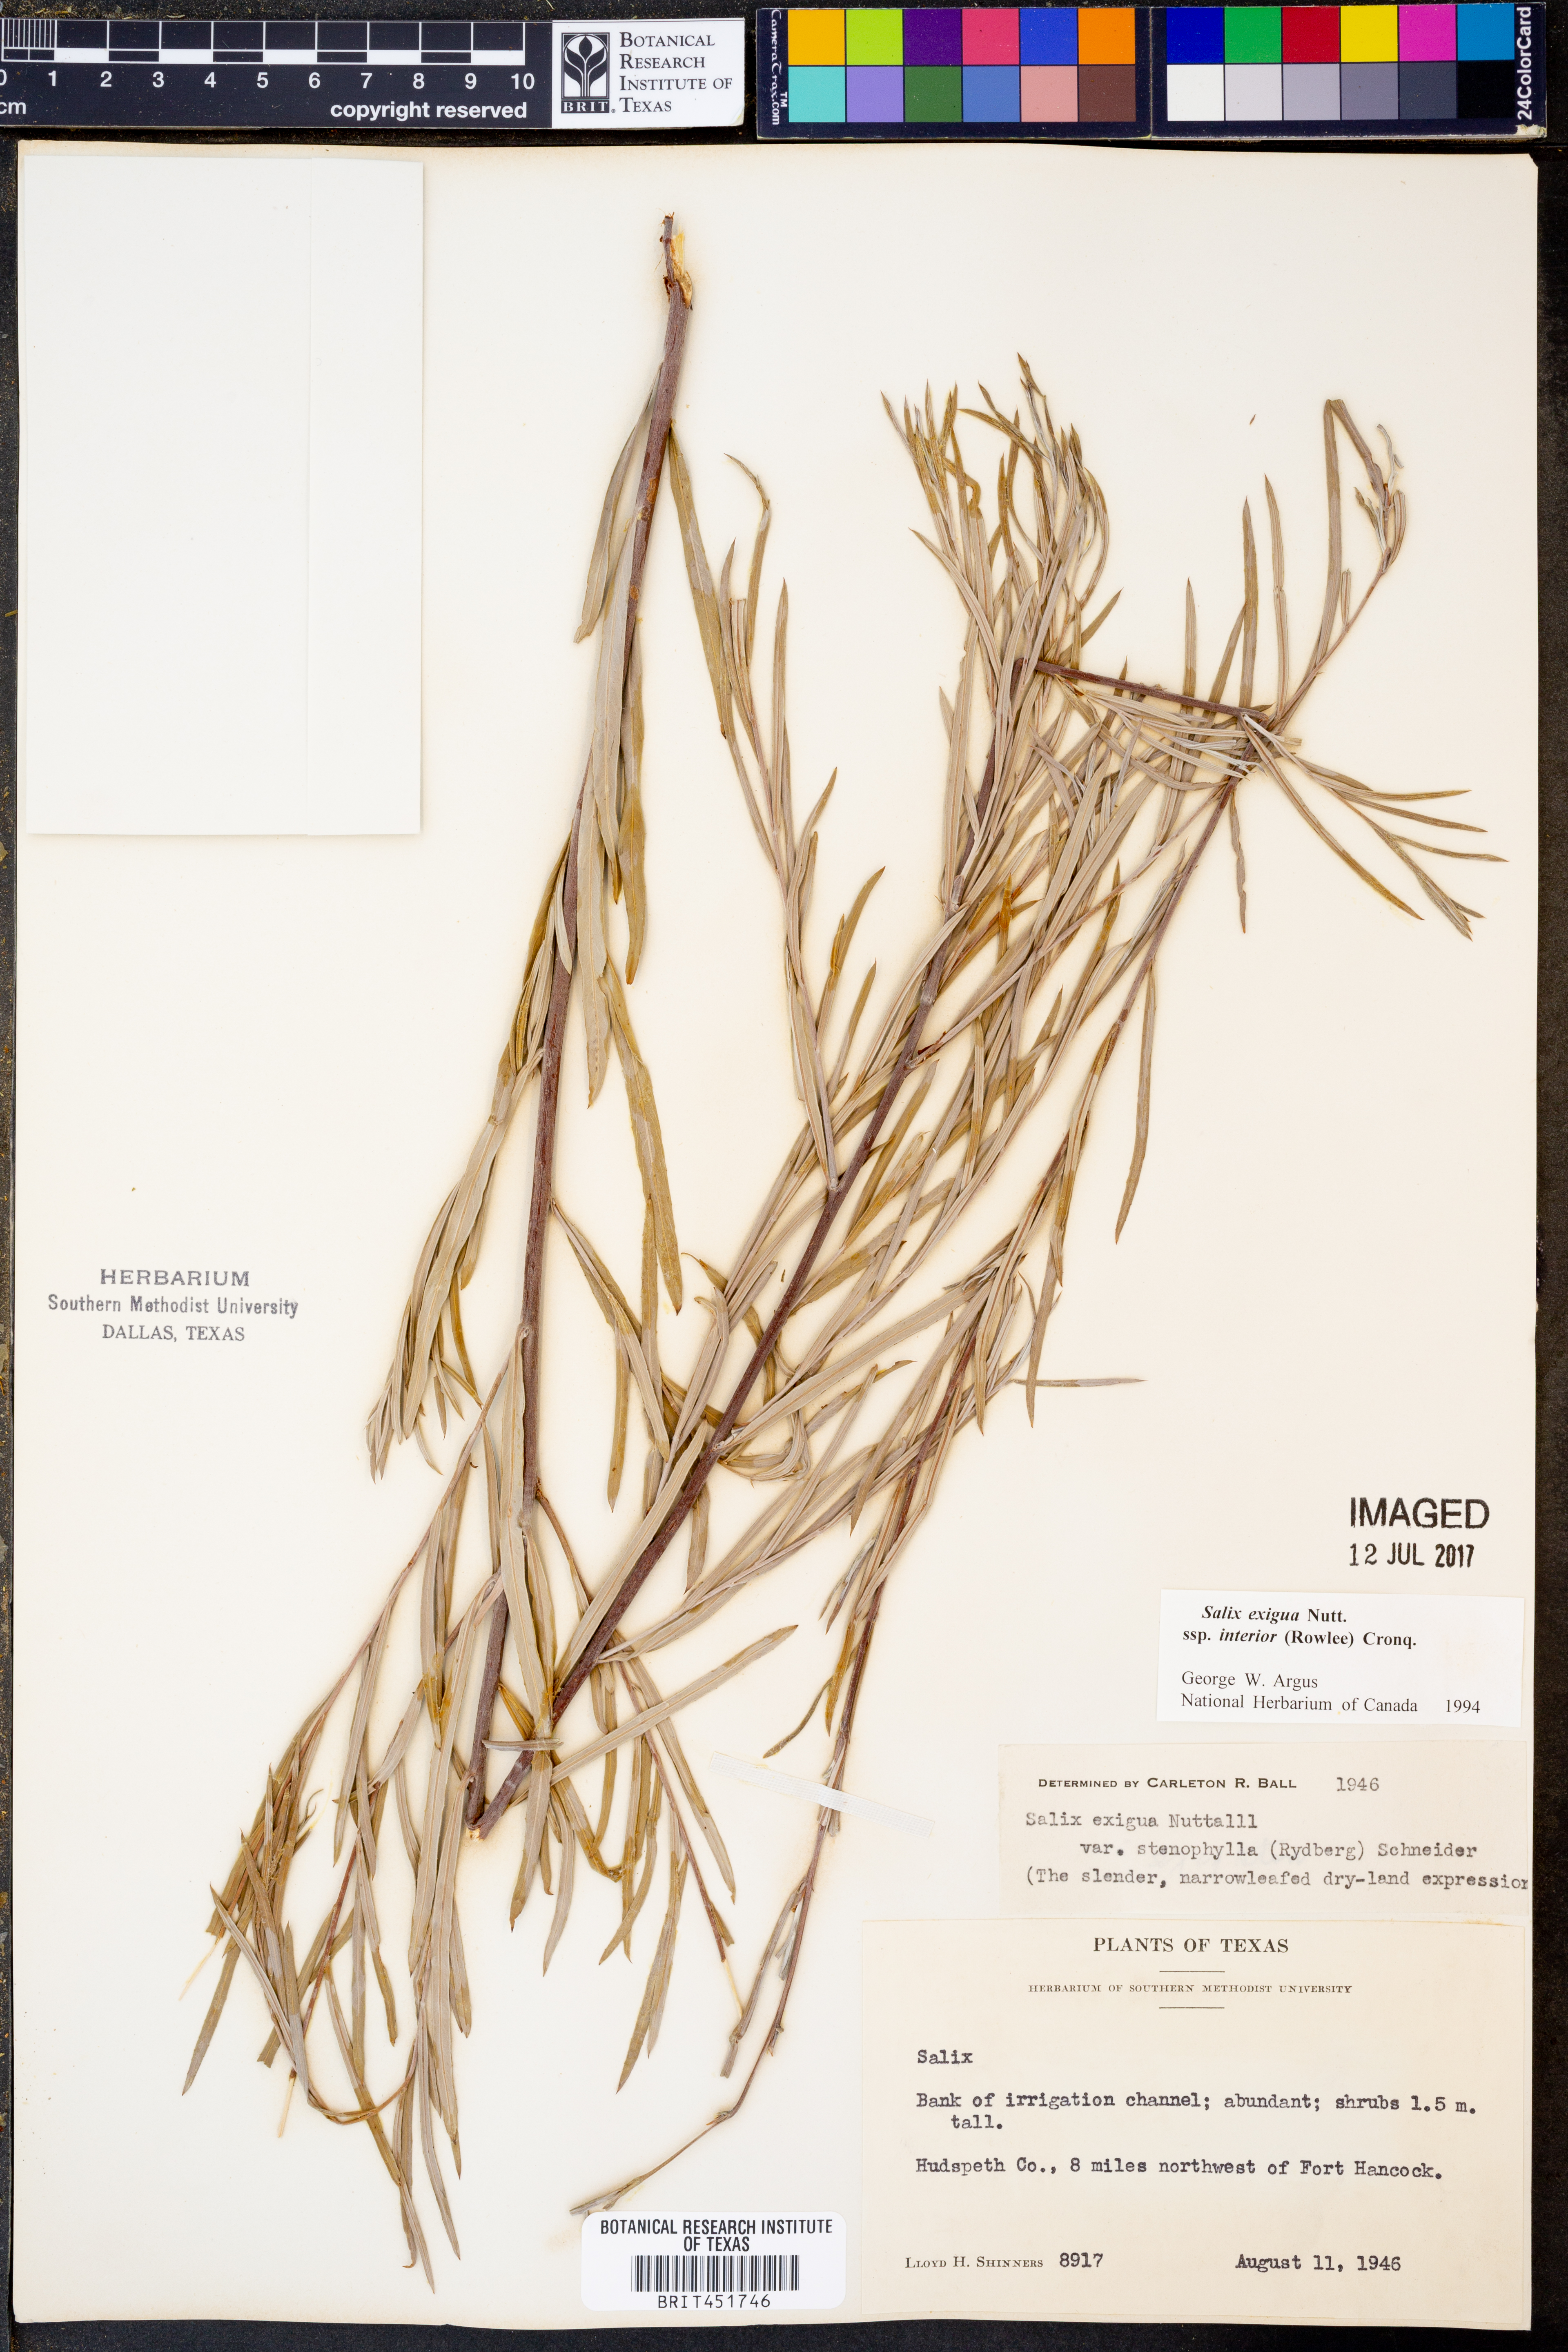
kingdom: Plantae
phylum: Tracheophyta
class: Magnoliopsida
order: Malpighiales
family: Salicaceae
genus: Salix
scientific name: Salix interior
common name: Sandbar willow
